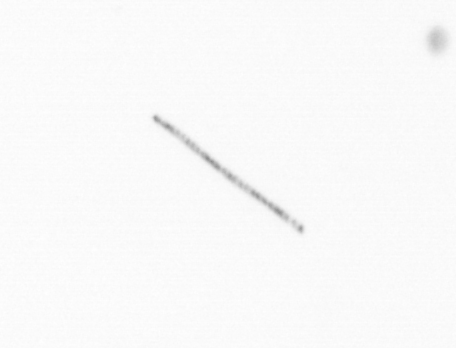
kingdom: Chromista
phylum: Ochrophyta
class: Bacillariophyceae
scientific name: Bacillariophyceae
